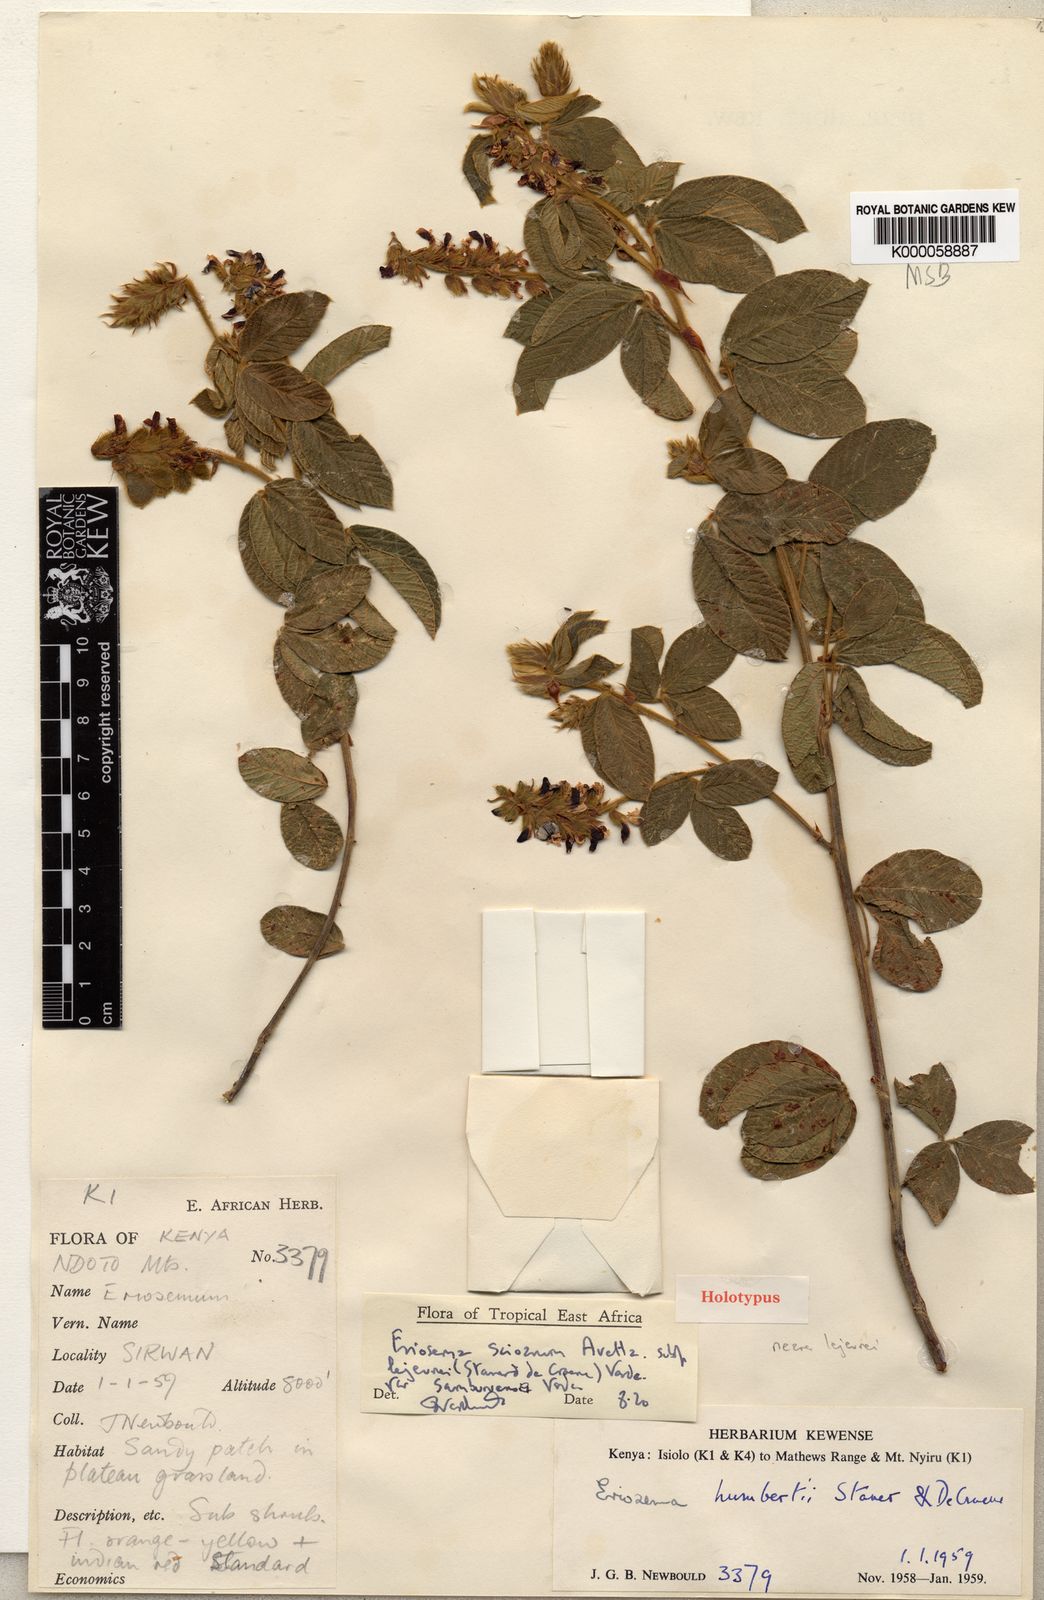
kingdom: Plantae
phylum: Tracheophyta
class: Magnoliopsida
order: Fabales
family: Fabaceae
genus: Eriosema
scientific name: Eriosema scioanum
